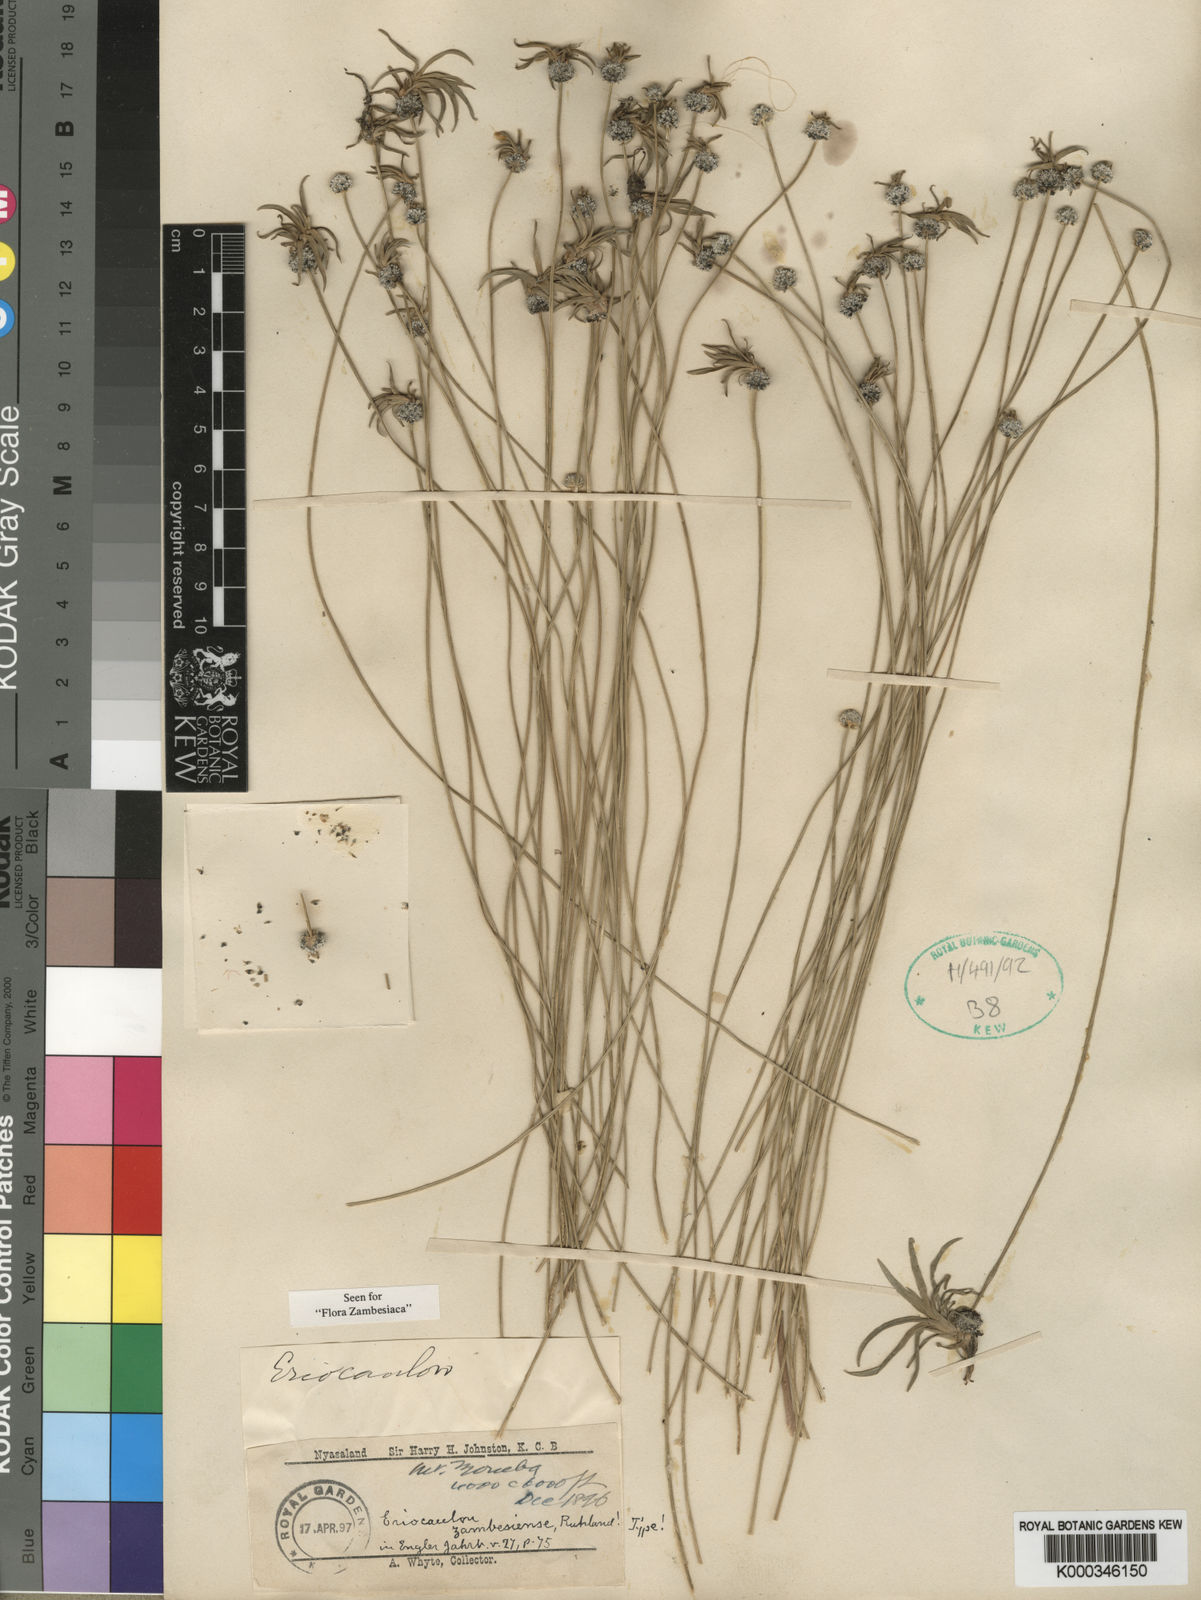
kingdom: Plantae
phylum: Tracheophyta
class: Liliopsida
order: Poales
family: Eriocaulaceae
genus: Eriocaulon
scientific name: Eriocaulon zambesiense
